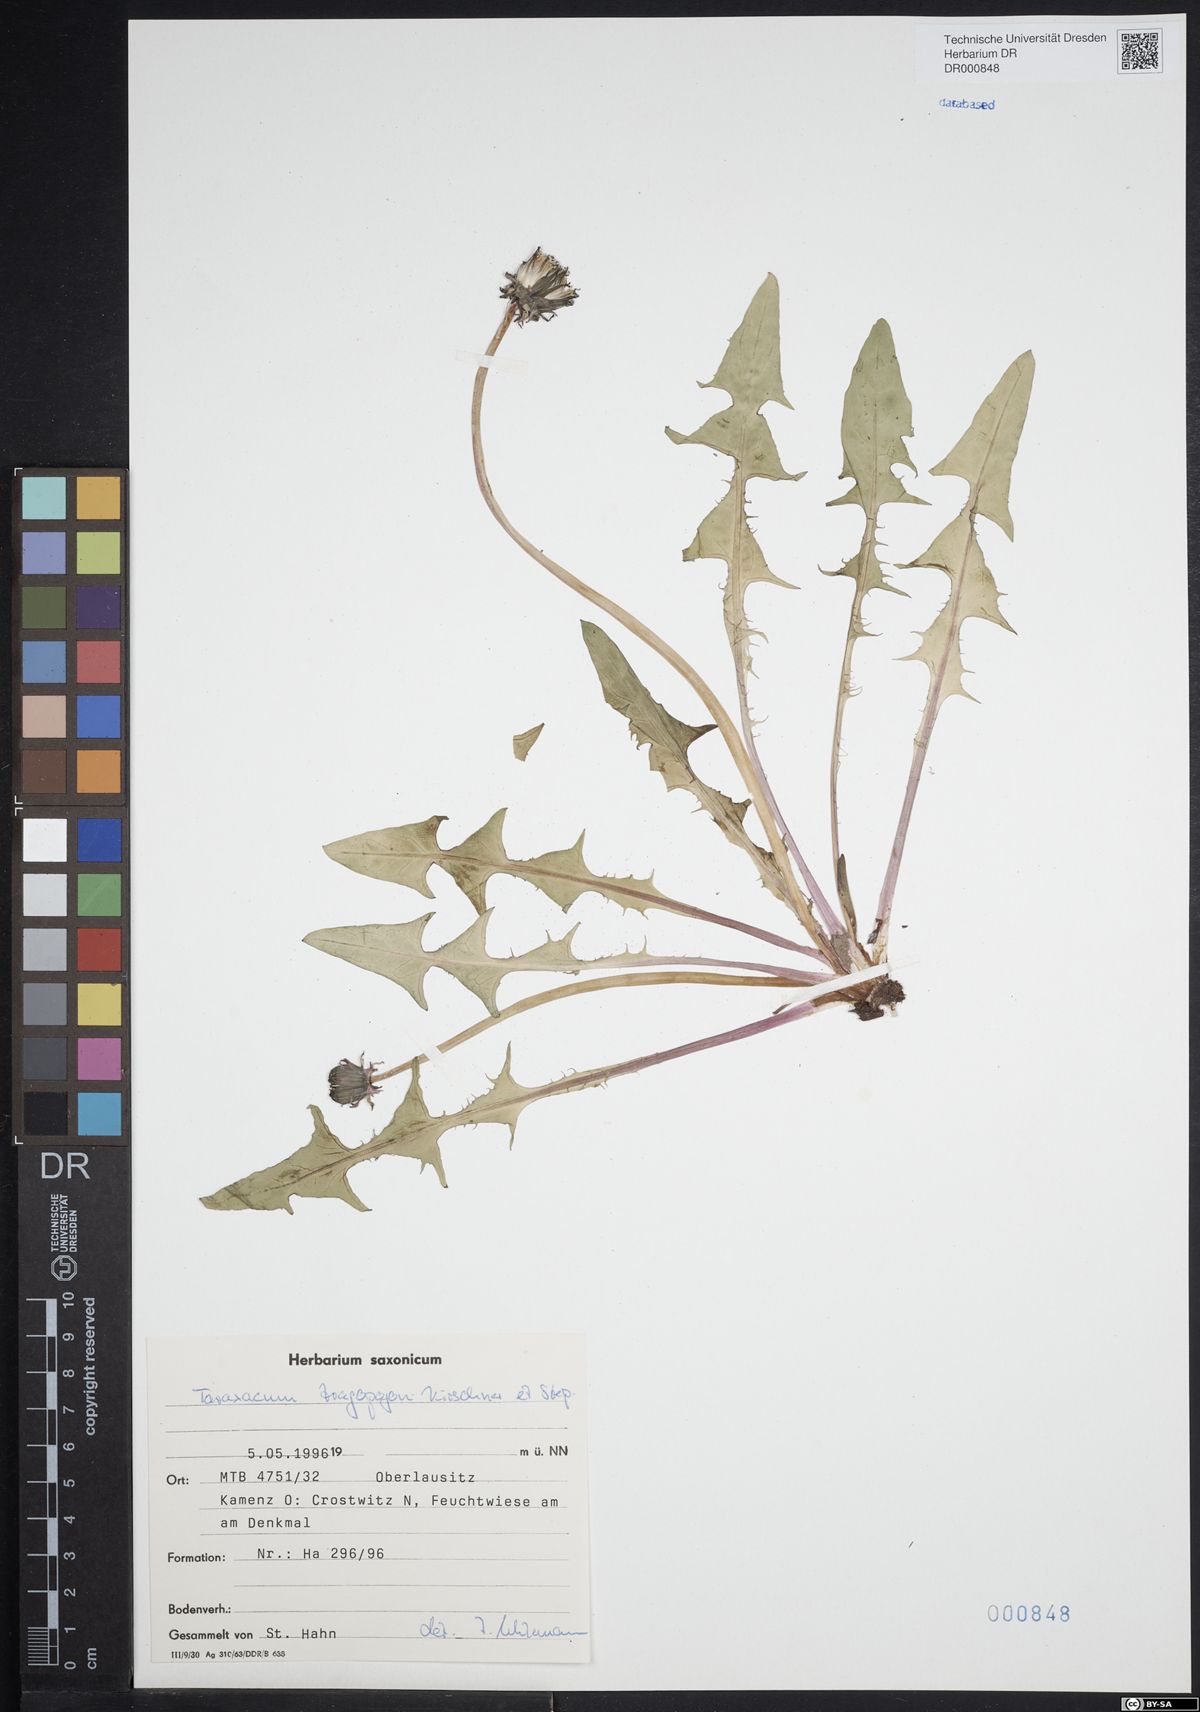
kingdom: Plantae
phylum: Tracheophyta
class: Magnoliopsida
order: Asterales
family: Asteraceae
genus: Taraxacum
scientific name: Taraxacum porrigentilobatum
